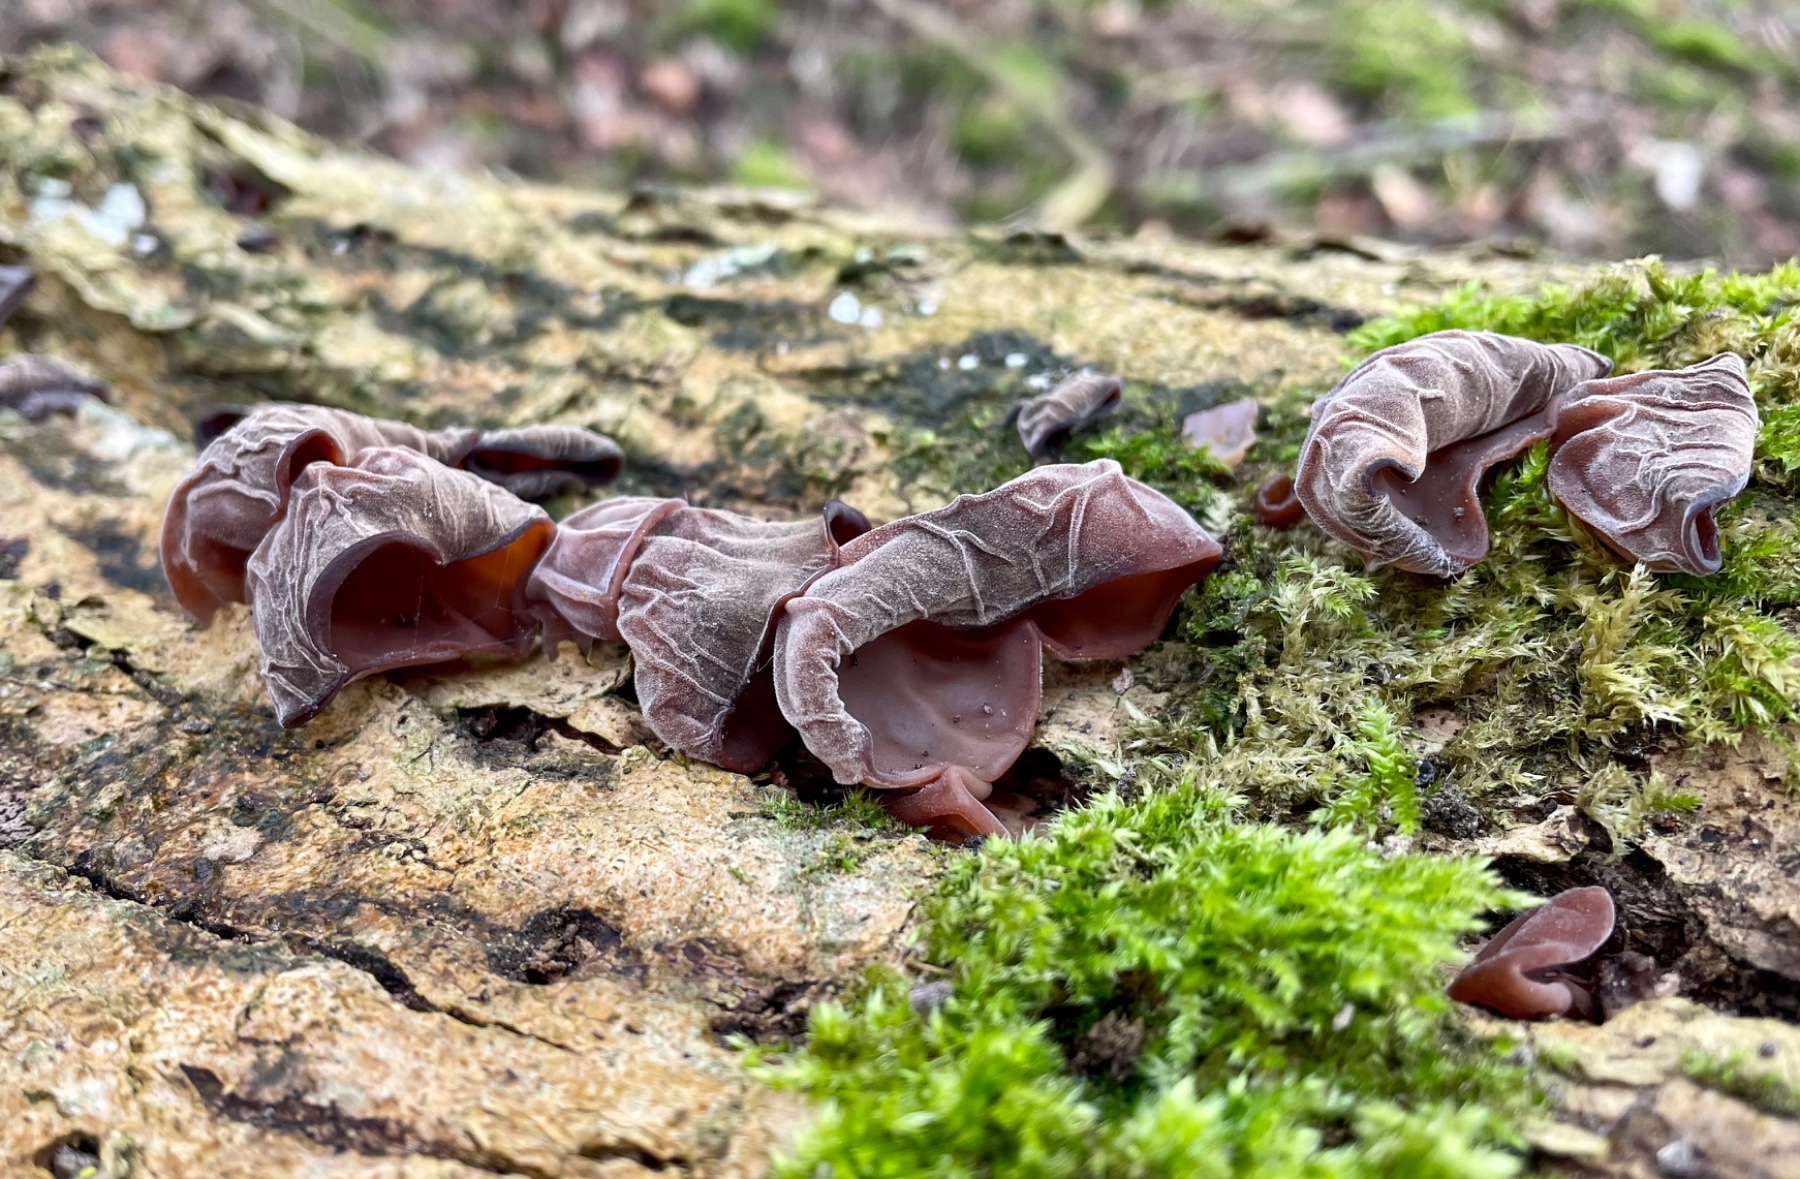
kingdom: Fungi
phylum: Basidiomycota
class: Agaricomycetes
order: Auriculariales
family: Auriculariaceae
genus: Auricularia
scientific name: Auricularia auricula-judae
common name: almindelig judasøre
